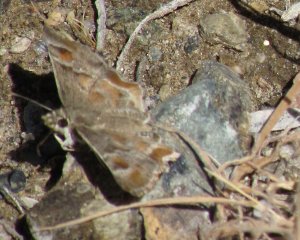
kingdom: Animalia
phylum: Arthropoda
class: Insecta
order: Lepidoptera
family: Hesperiidae
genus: Systasea
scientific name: Systasea zampa
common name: Arizona Powdered-Skipper
